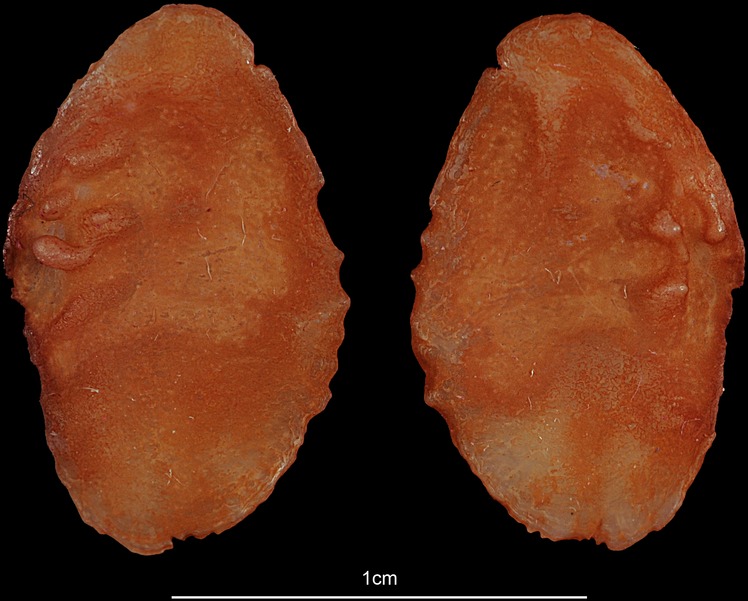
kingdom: Animalia
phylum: Chordata
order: Perciformes
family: Channidae
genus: Channa
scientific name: Channa striata
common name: Striped snakehead
